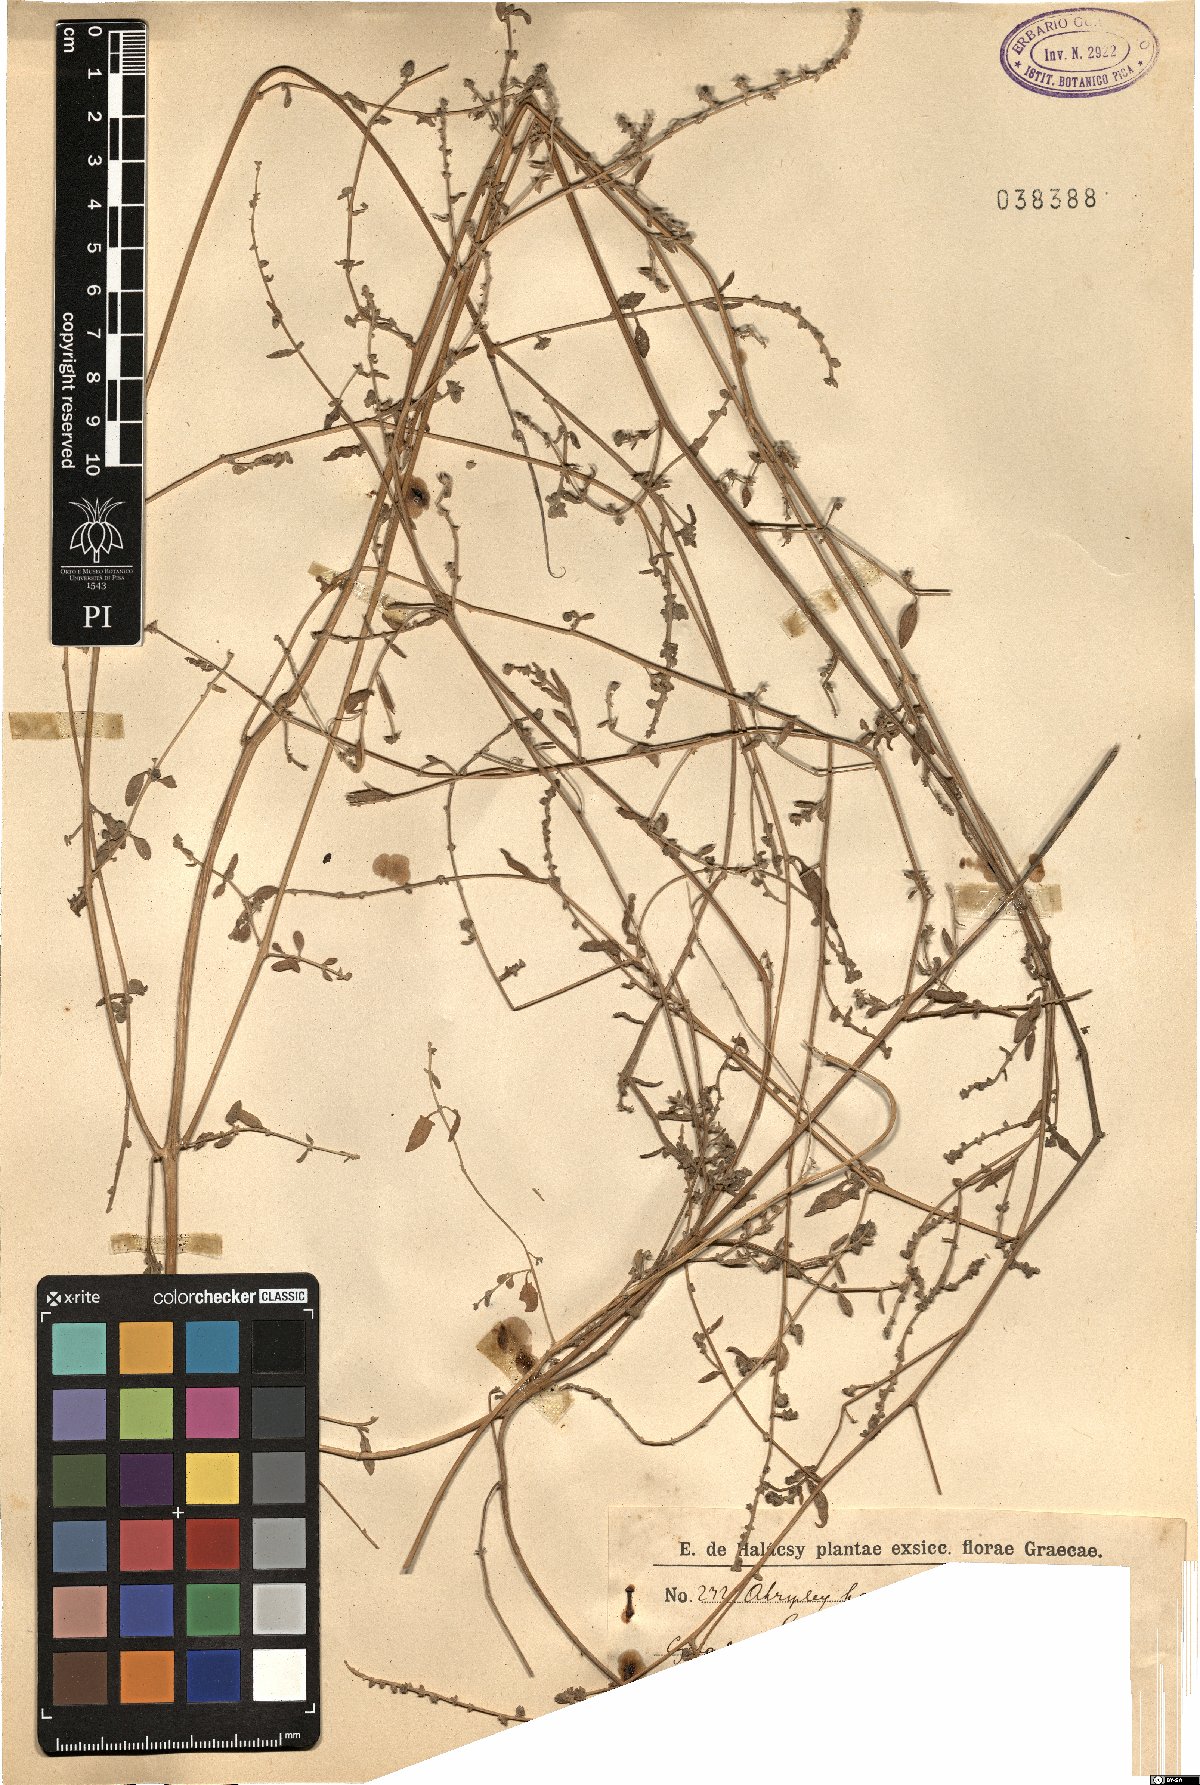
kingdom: Plantae
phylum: Tracheophyta
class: Magnoliopsida
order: Caryophyllales
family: Amaranthaceae
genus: Atriplex
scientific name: Atriplex
